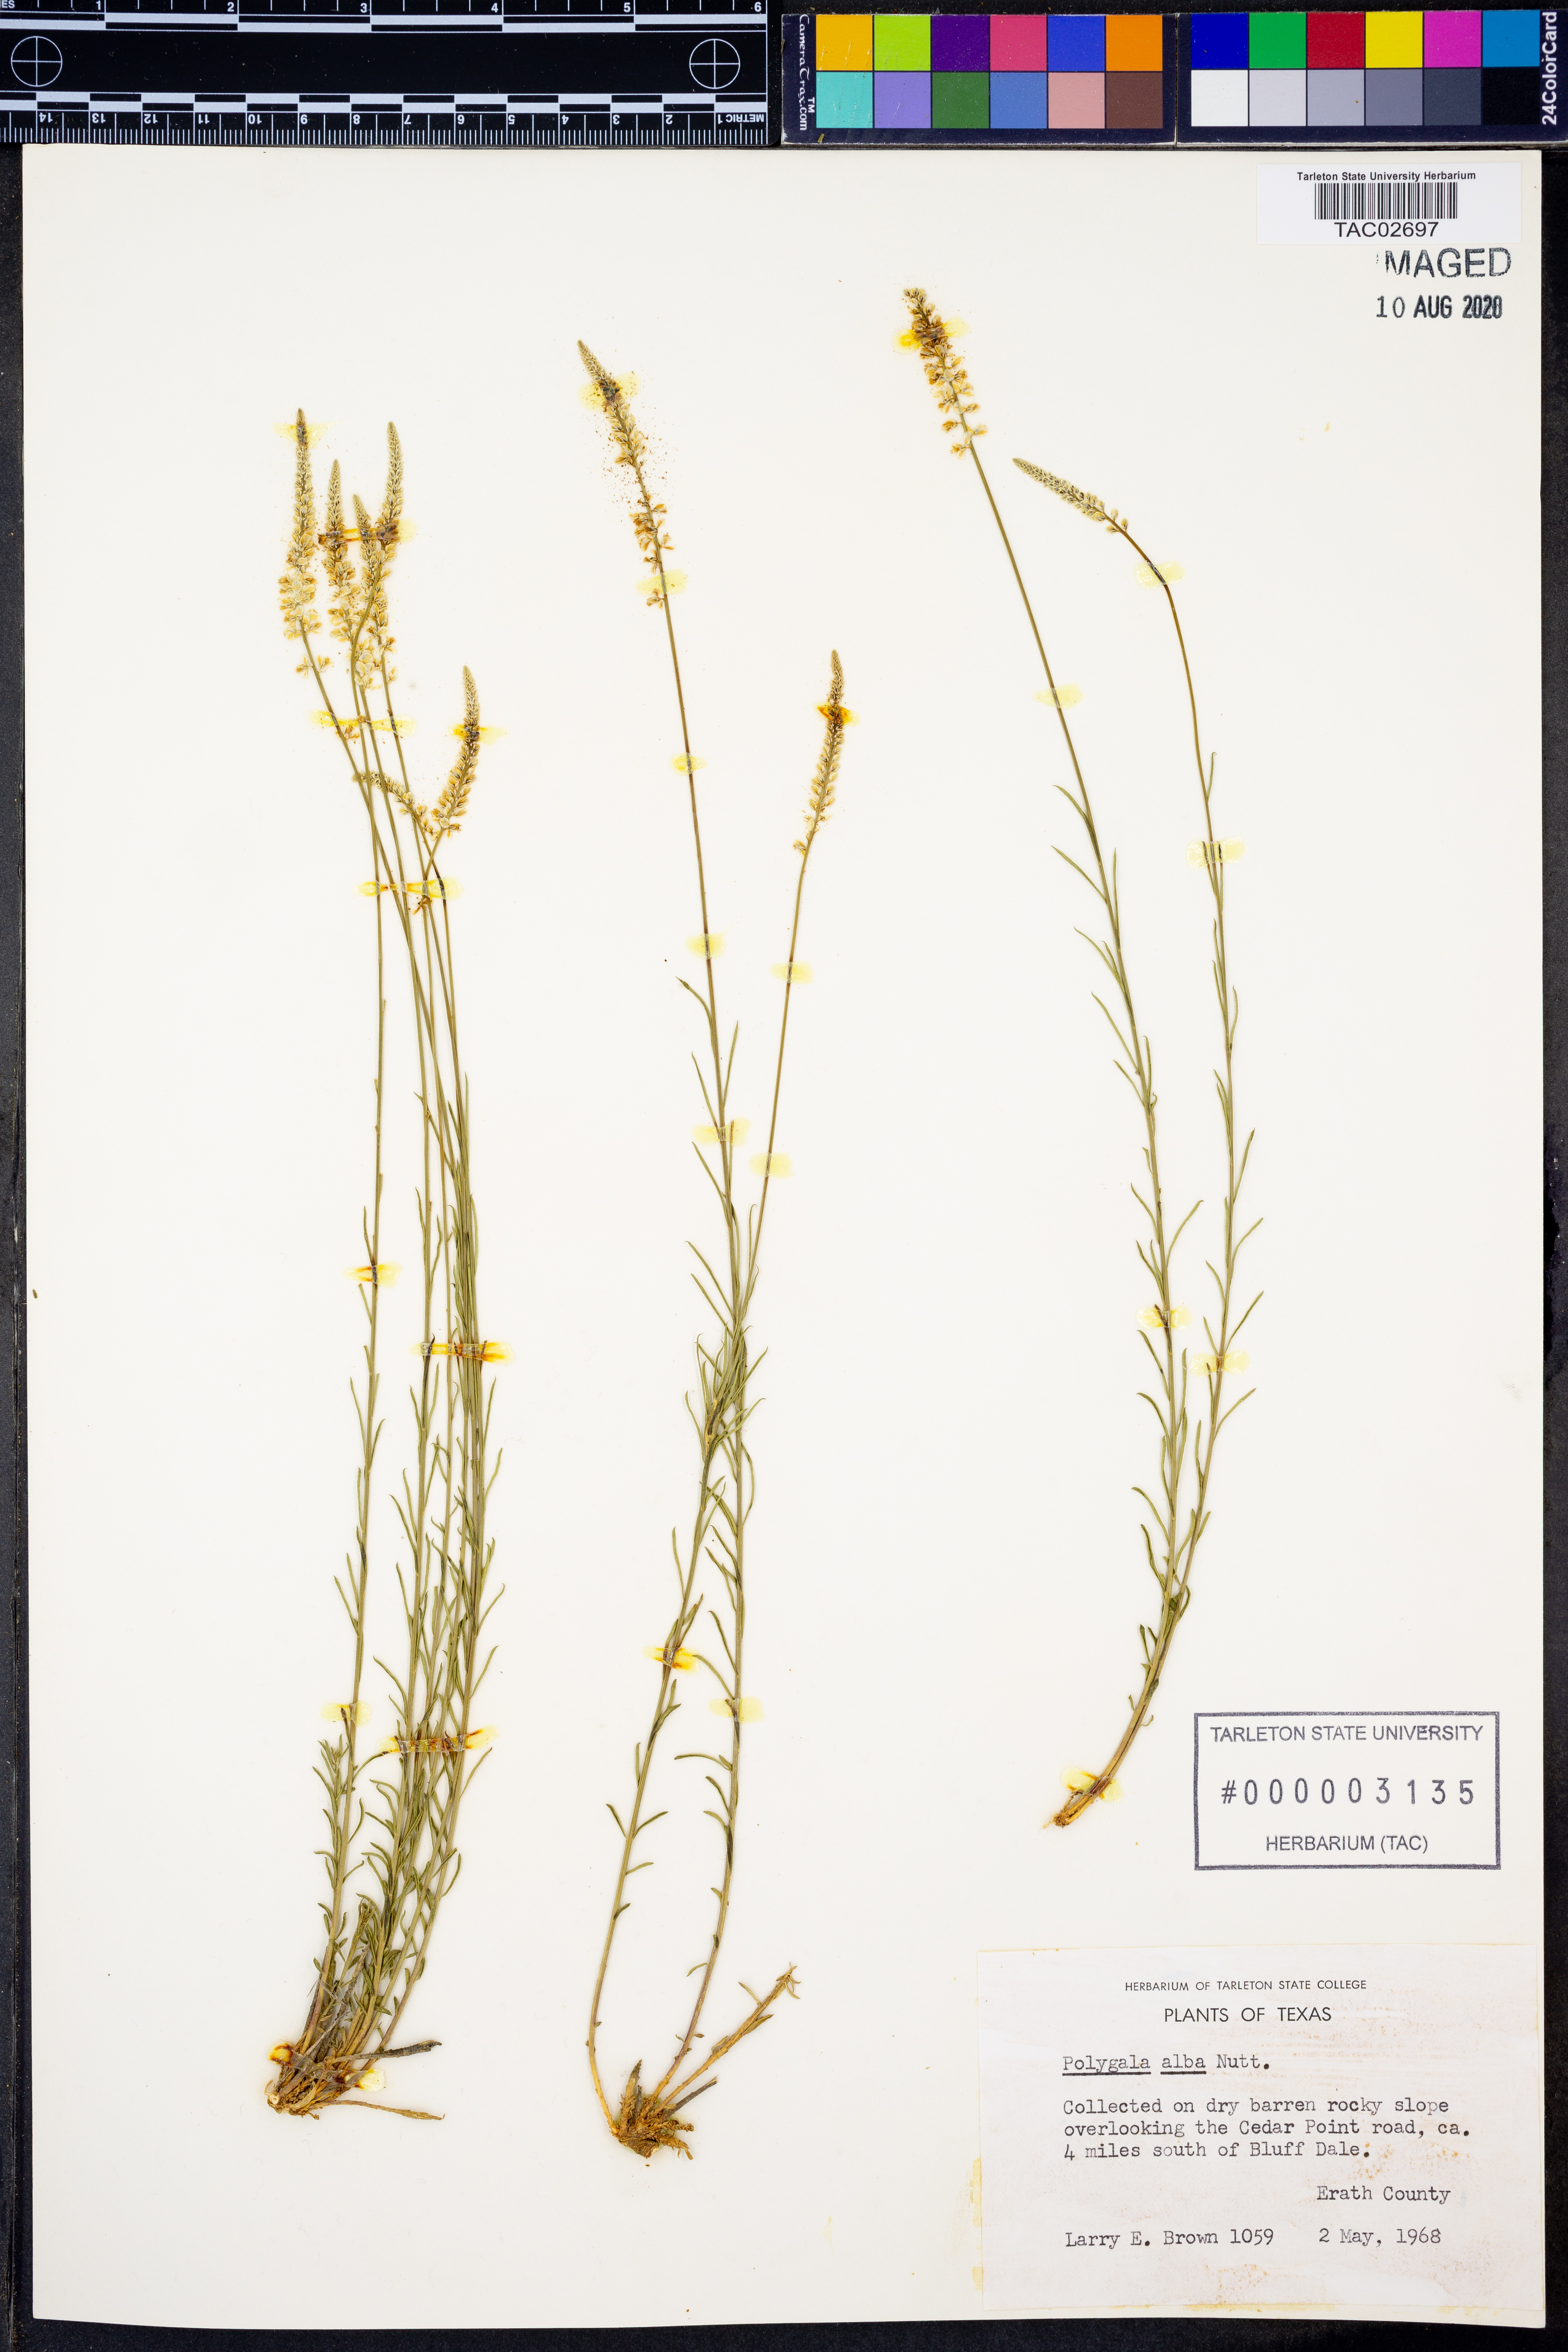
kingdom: Plantae
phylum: Tracheophyta
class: Magnoliopsida
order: Fabales
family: Polygalaceae
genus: Polygala
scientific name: Polygala alba
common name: White milkwort
